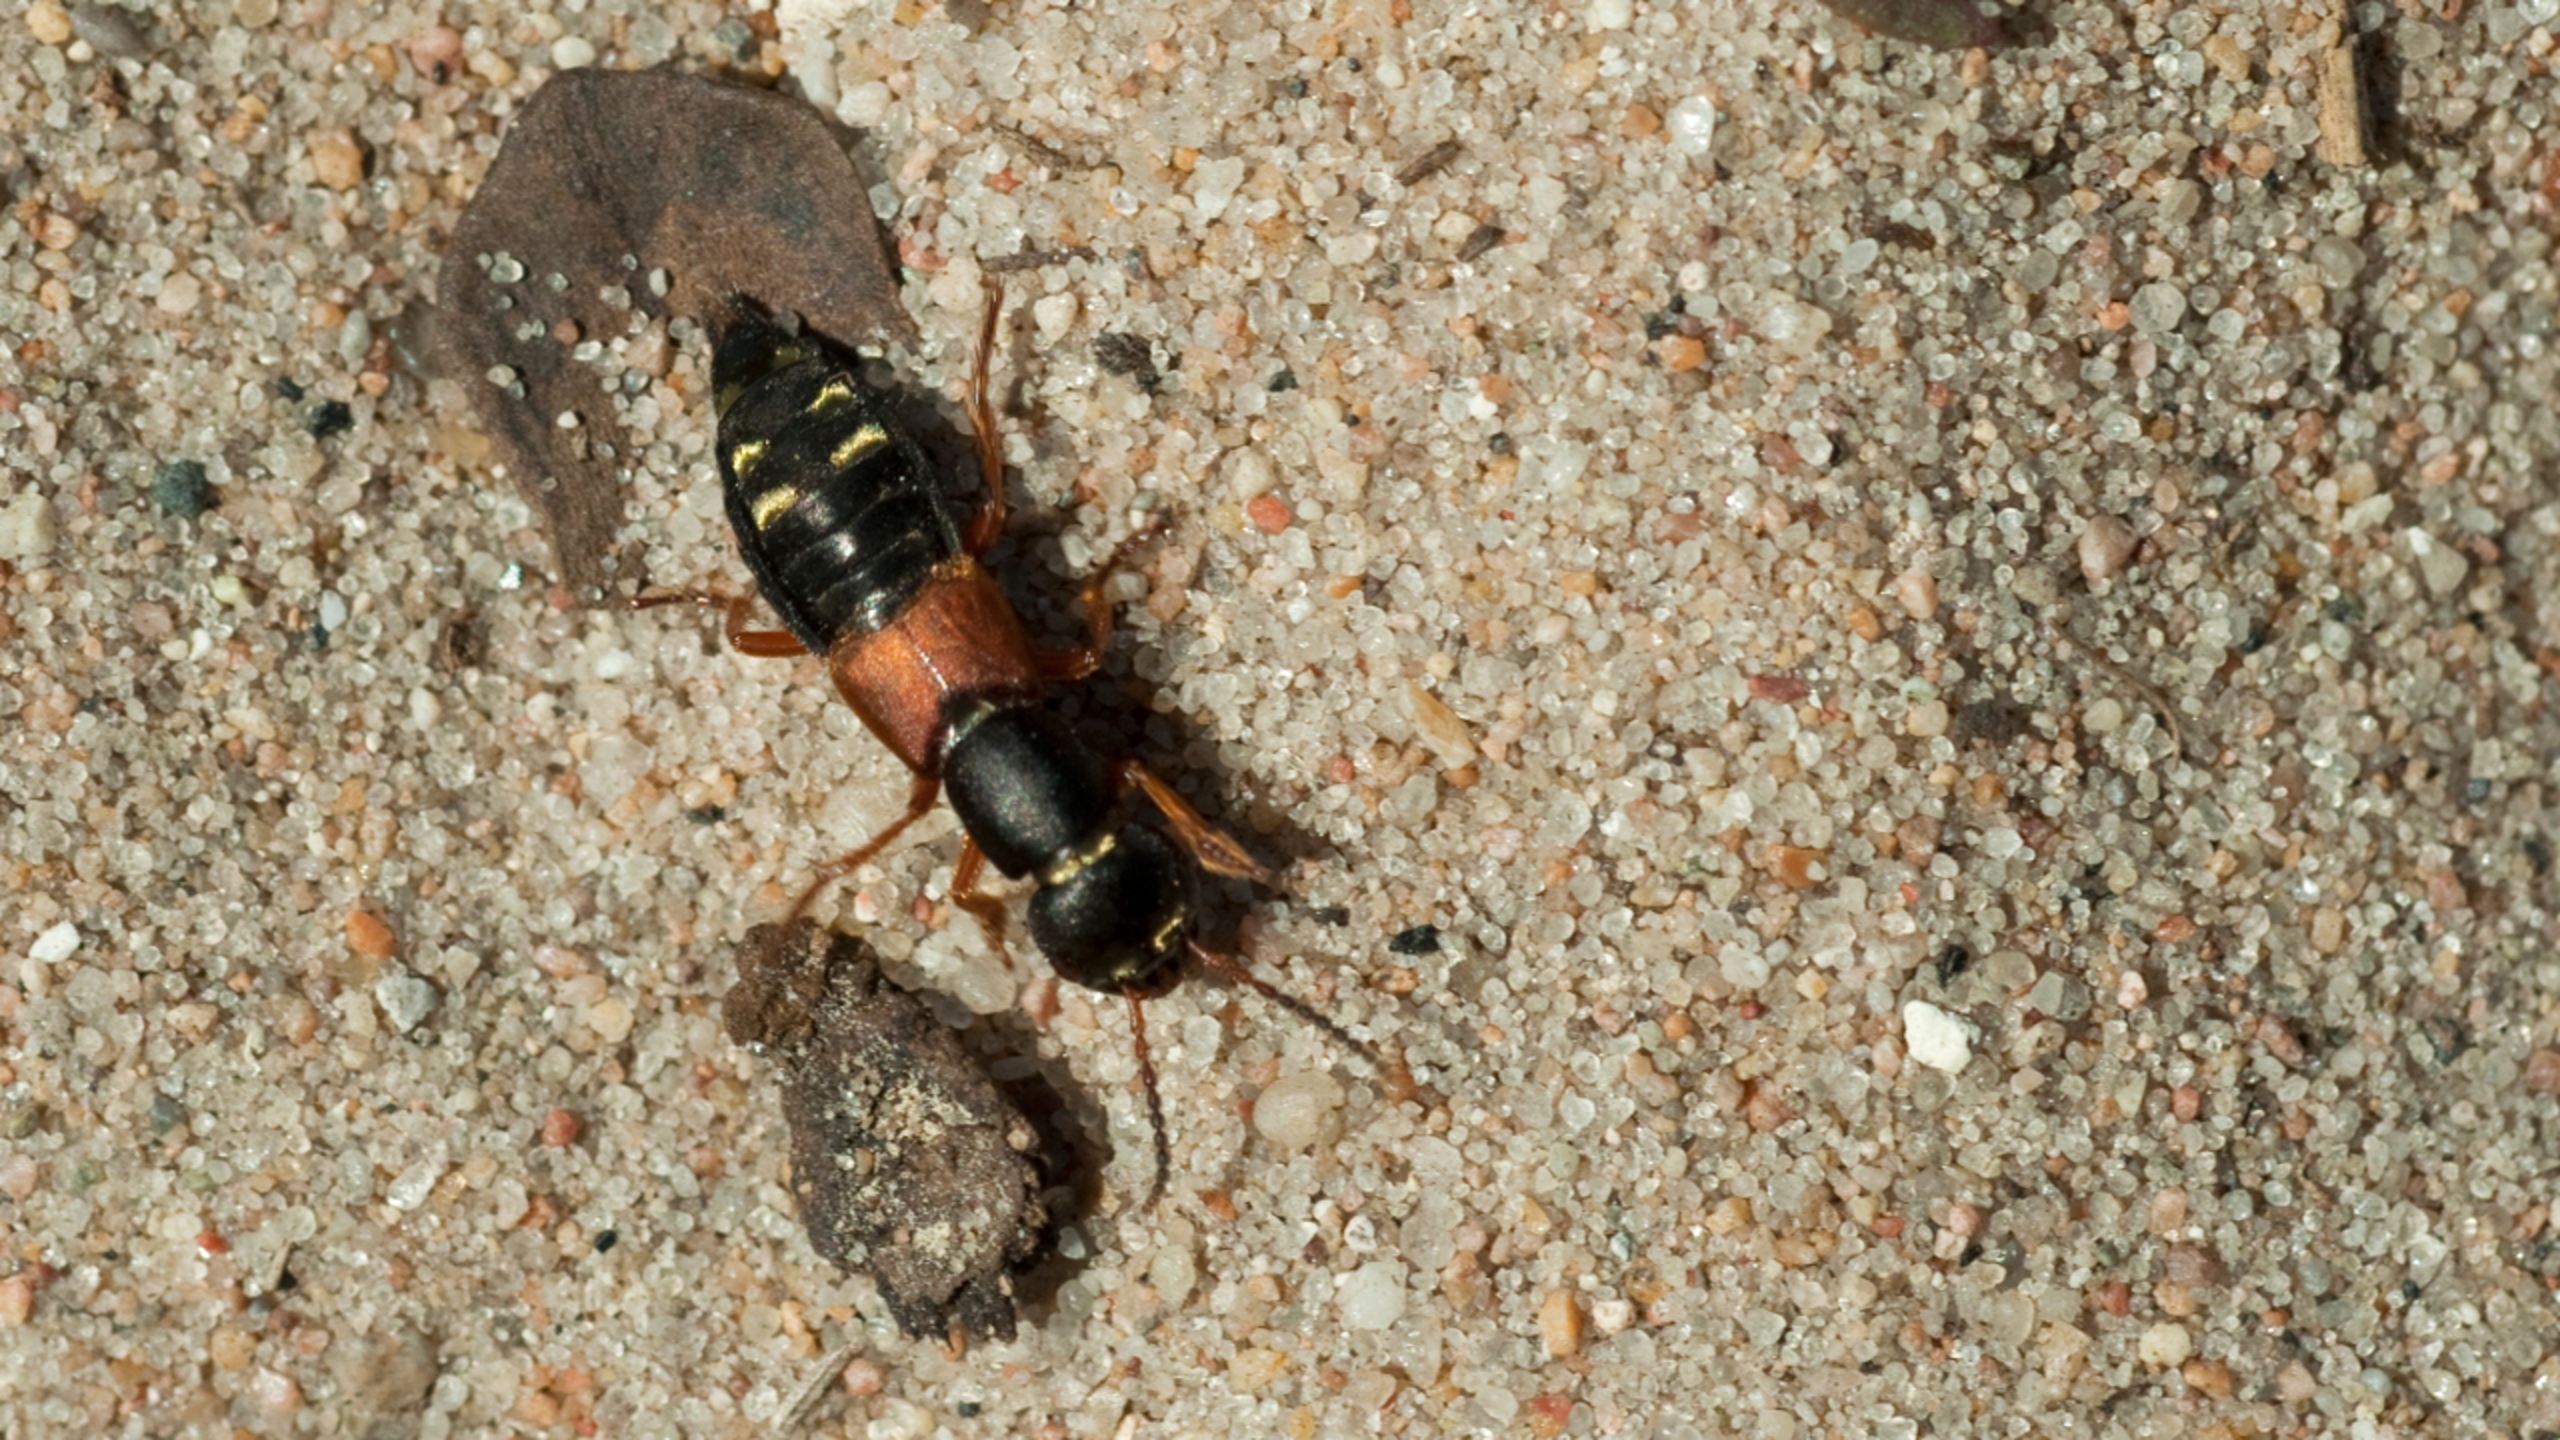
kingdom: Animalia
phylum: Arthropoda
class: Insecta
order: Coleoptera
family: Staphylinidae
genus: Staphylinus
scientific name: Staphylinus erythropterus
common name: Rødvinget rovbille
